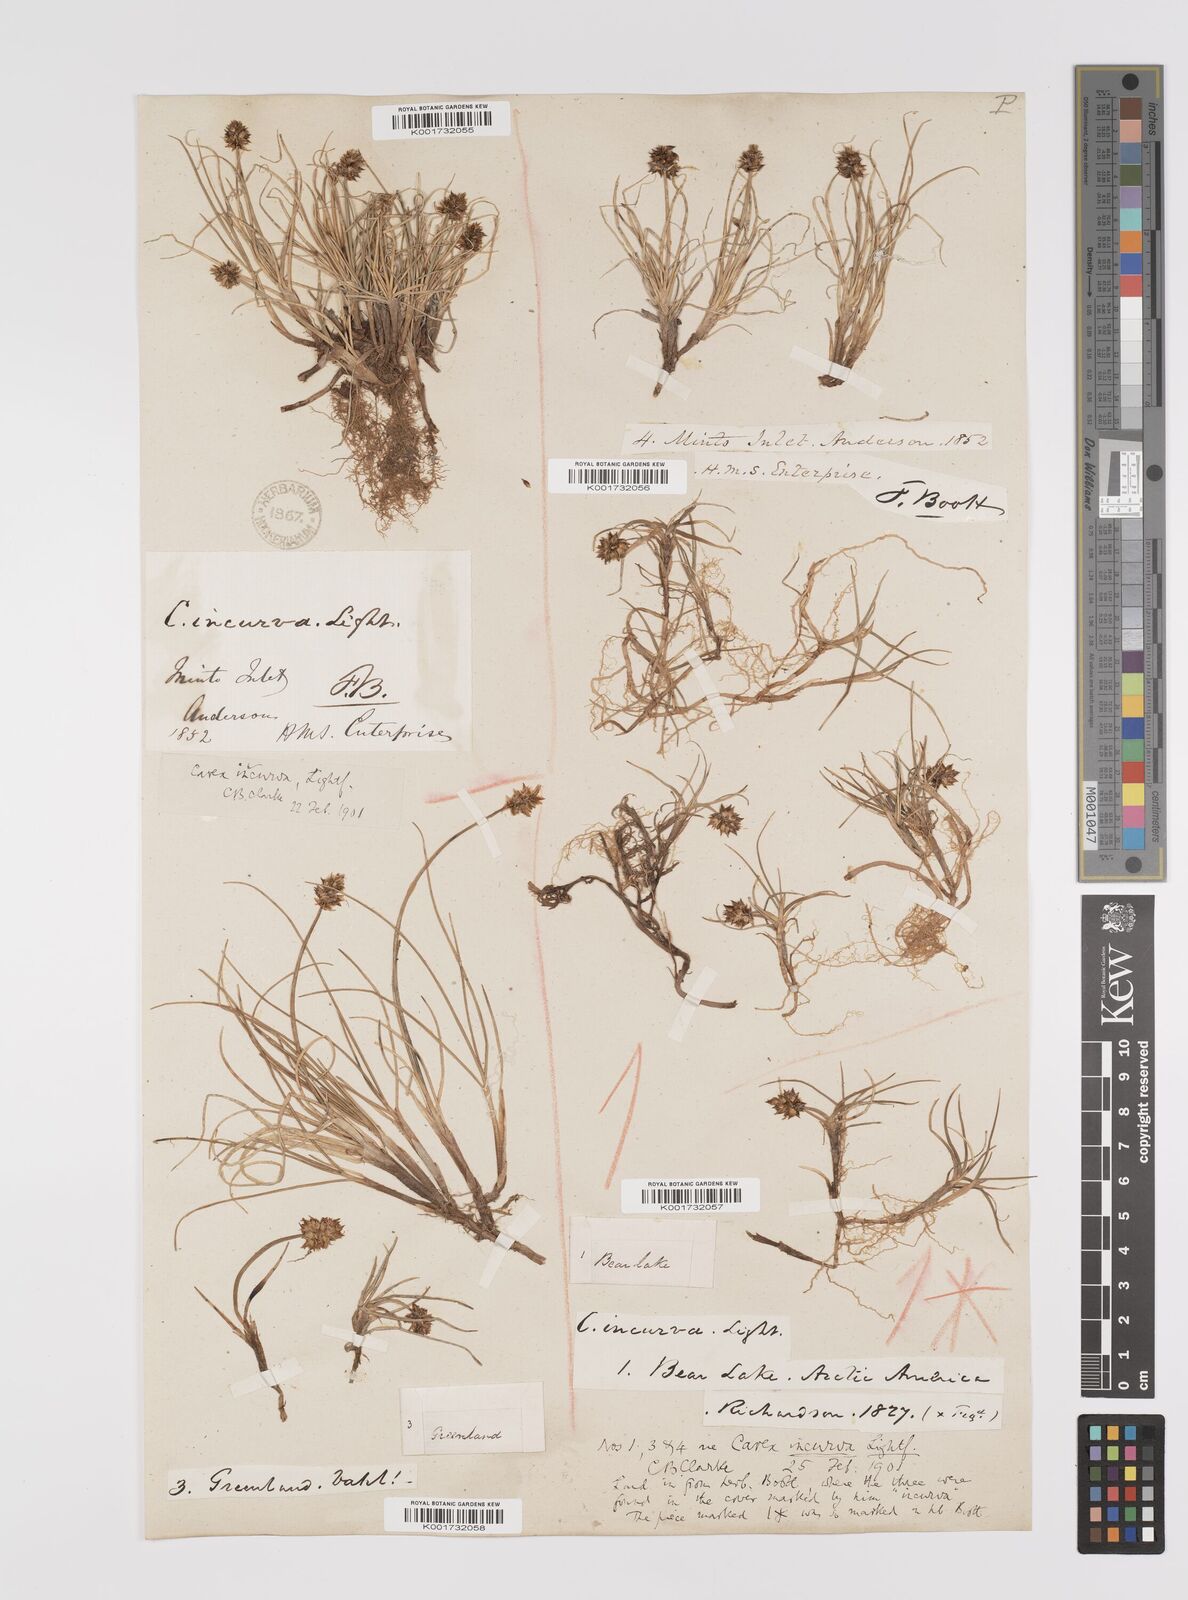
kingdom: Plantae
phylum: Tracheophyta
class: Liliopsida
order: Poales
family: Cyperaceae
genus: Carex
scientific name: Carex maritima
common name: Curved sedge
